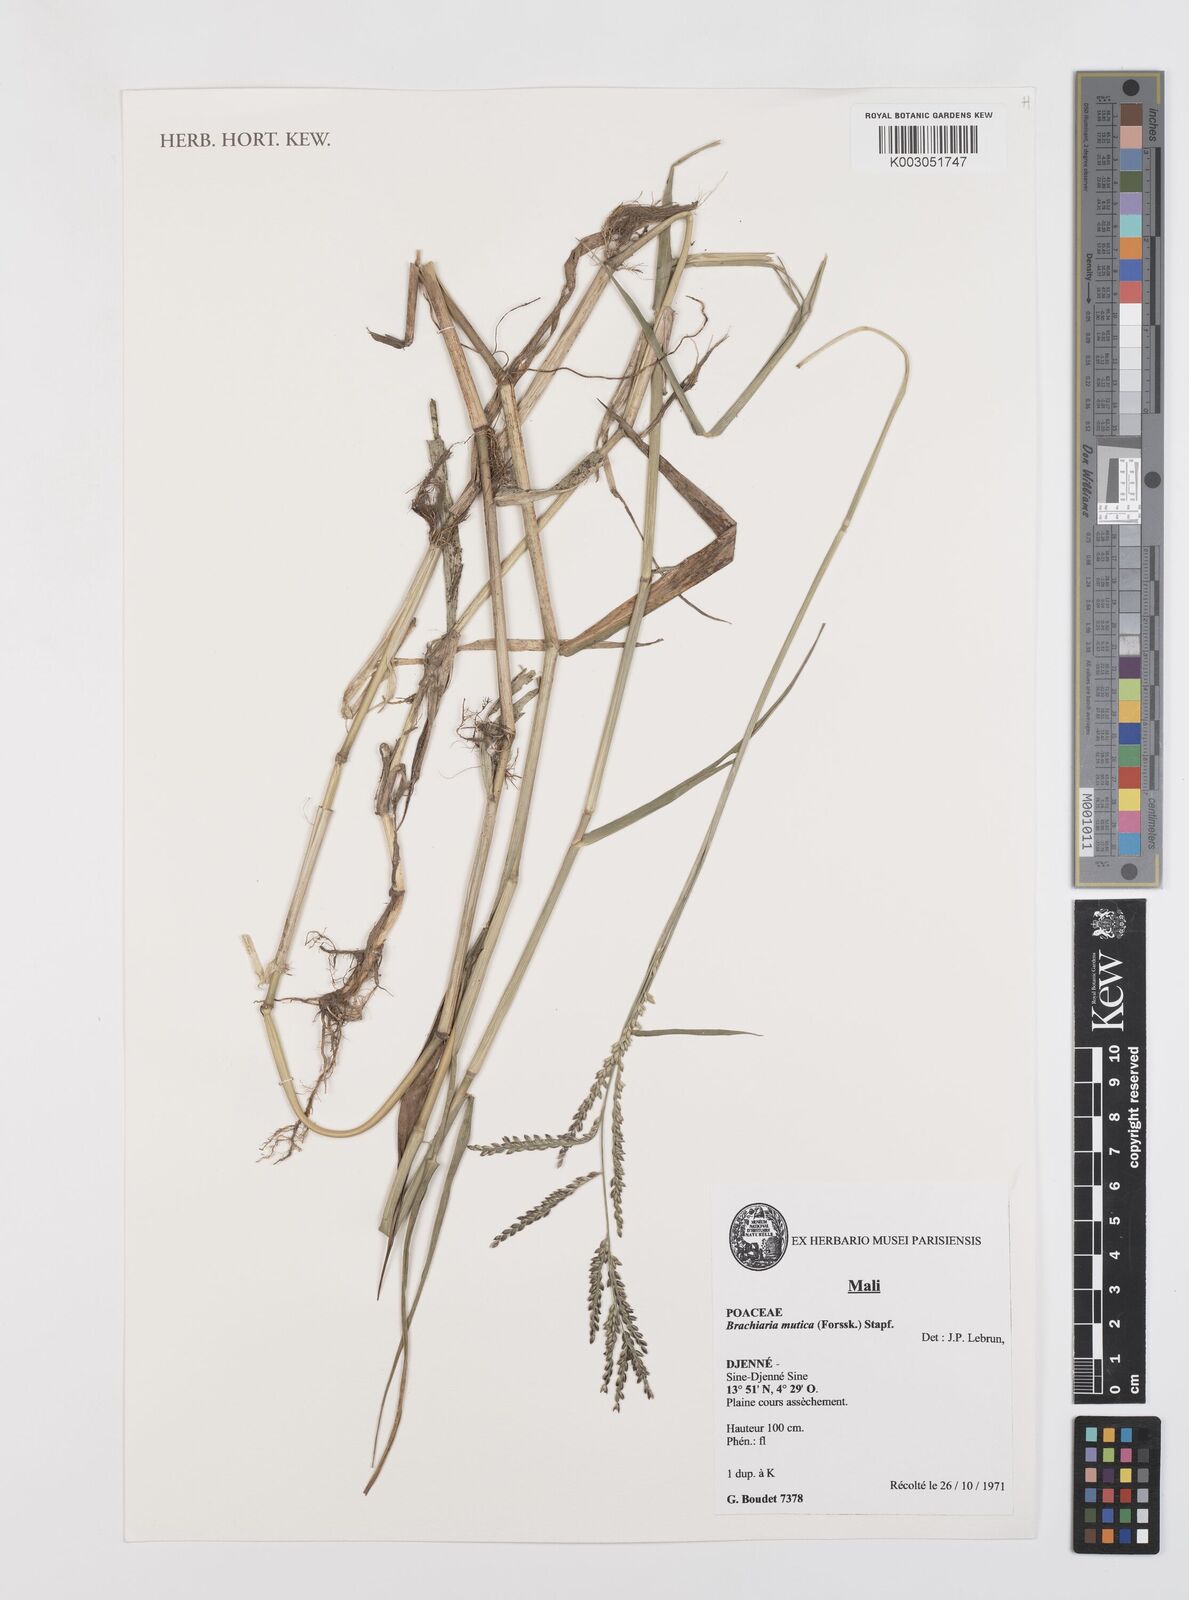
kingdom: Plantae
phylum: Tracheophyta
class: Liliopsida
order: Poales
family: Poaceae
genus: Urochloa
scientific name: Urochloa mutica
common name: Para grass
